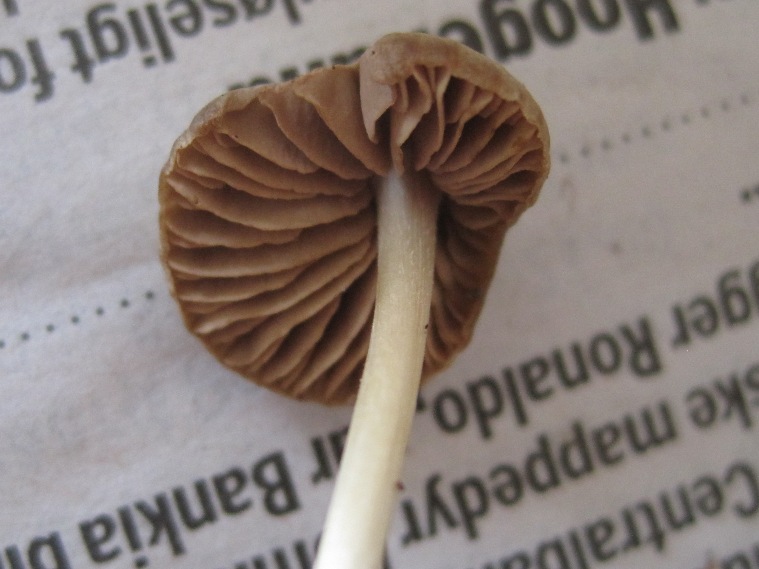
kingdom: Fungi
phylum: Basidiomycota
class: Agaricomycetes
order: Agaricales
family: Entolomataceae
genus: Entoloma
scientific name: Entoloma favrei
